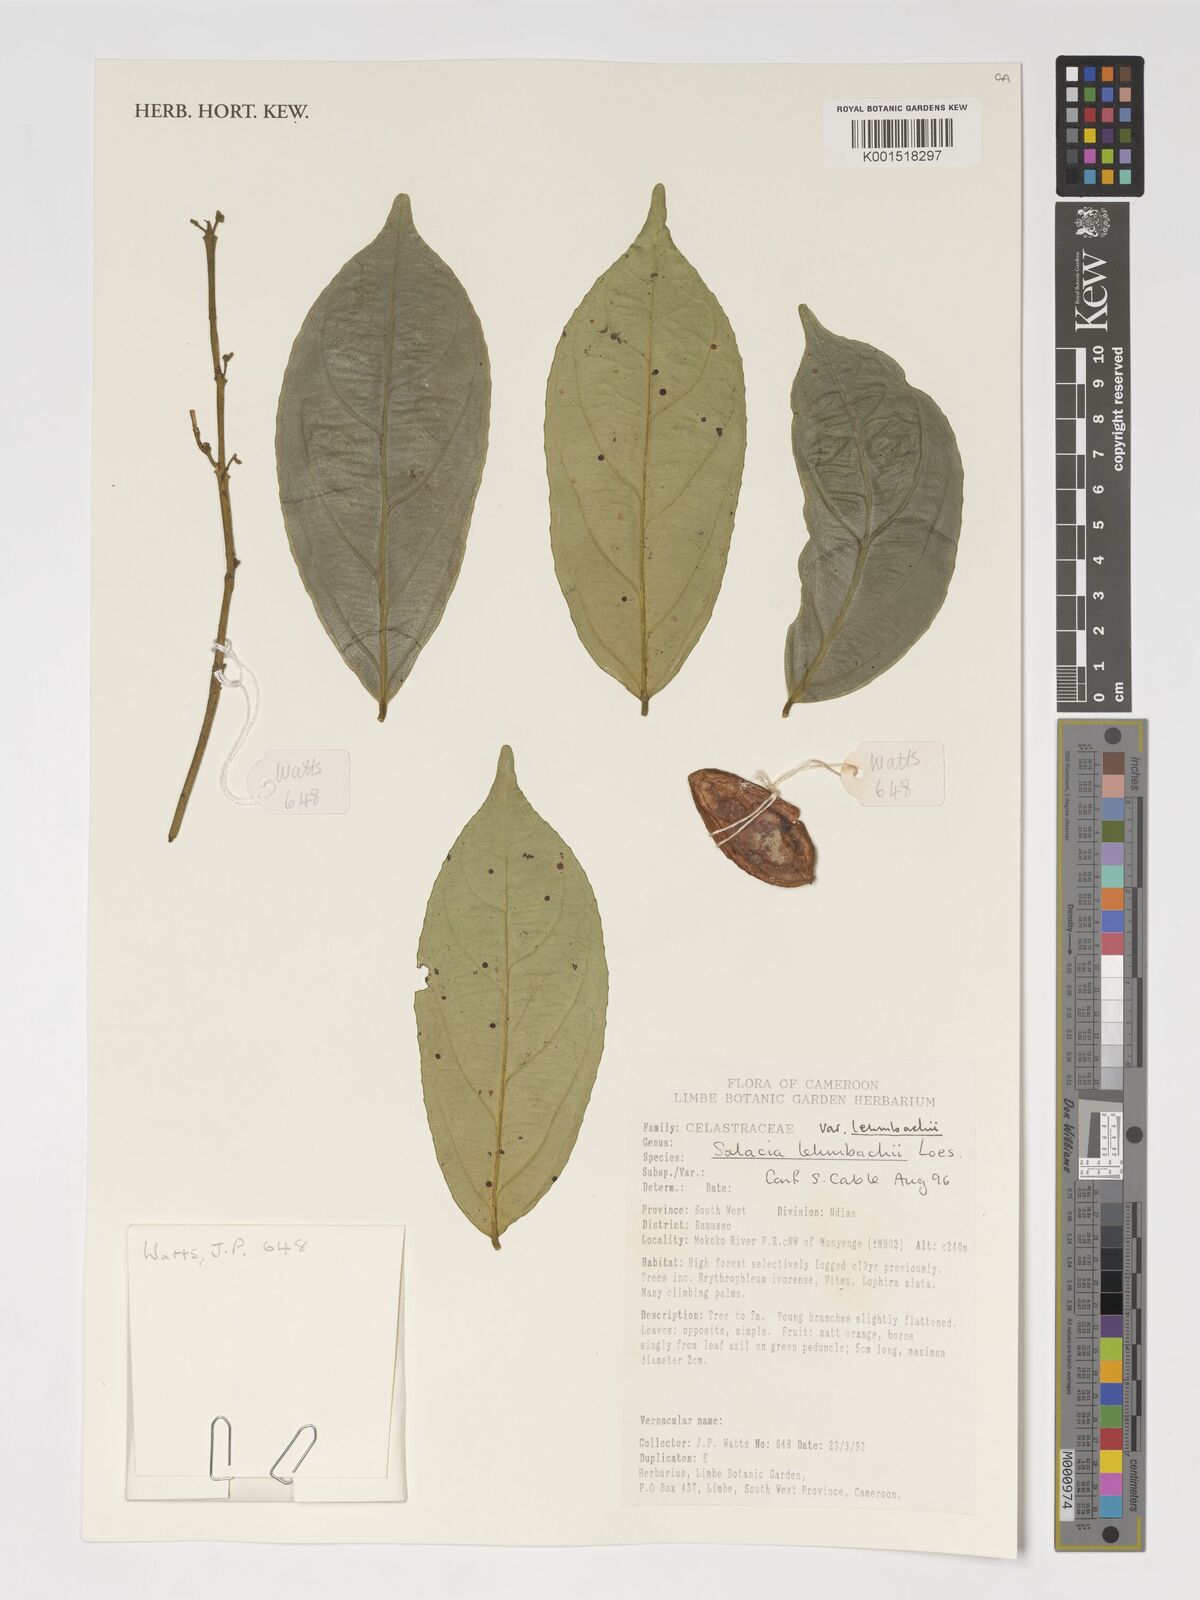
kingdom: Plantae
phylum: Tracheophyta
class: Magnoliopsida
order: Celastrales
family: Celastraceae
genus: Salacia
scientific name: Salacia lehmbachii
